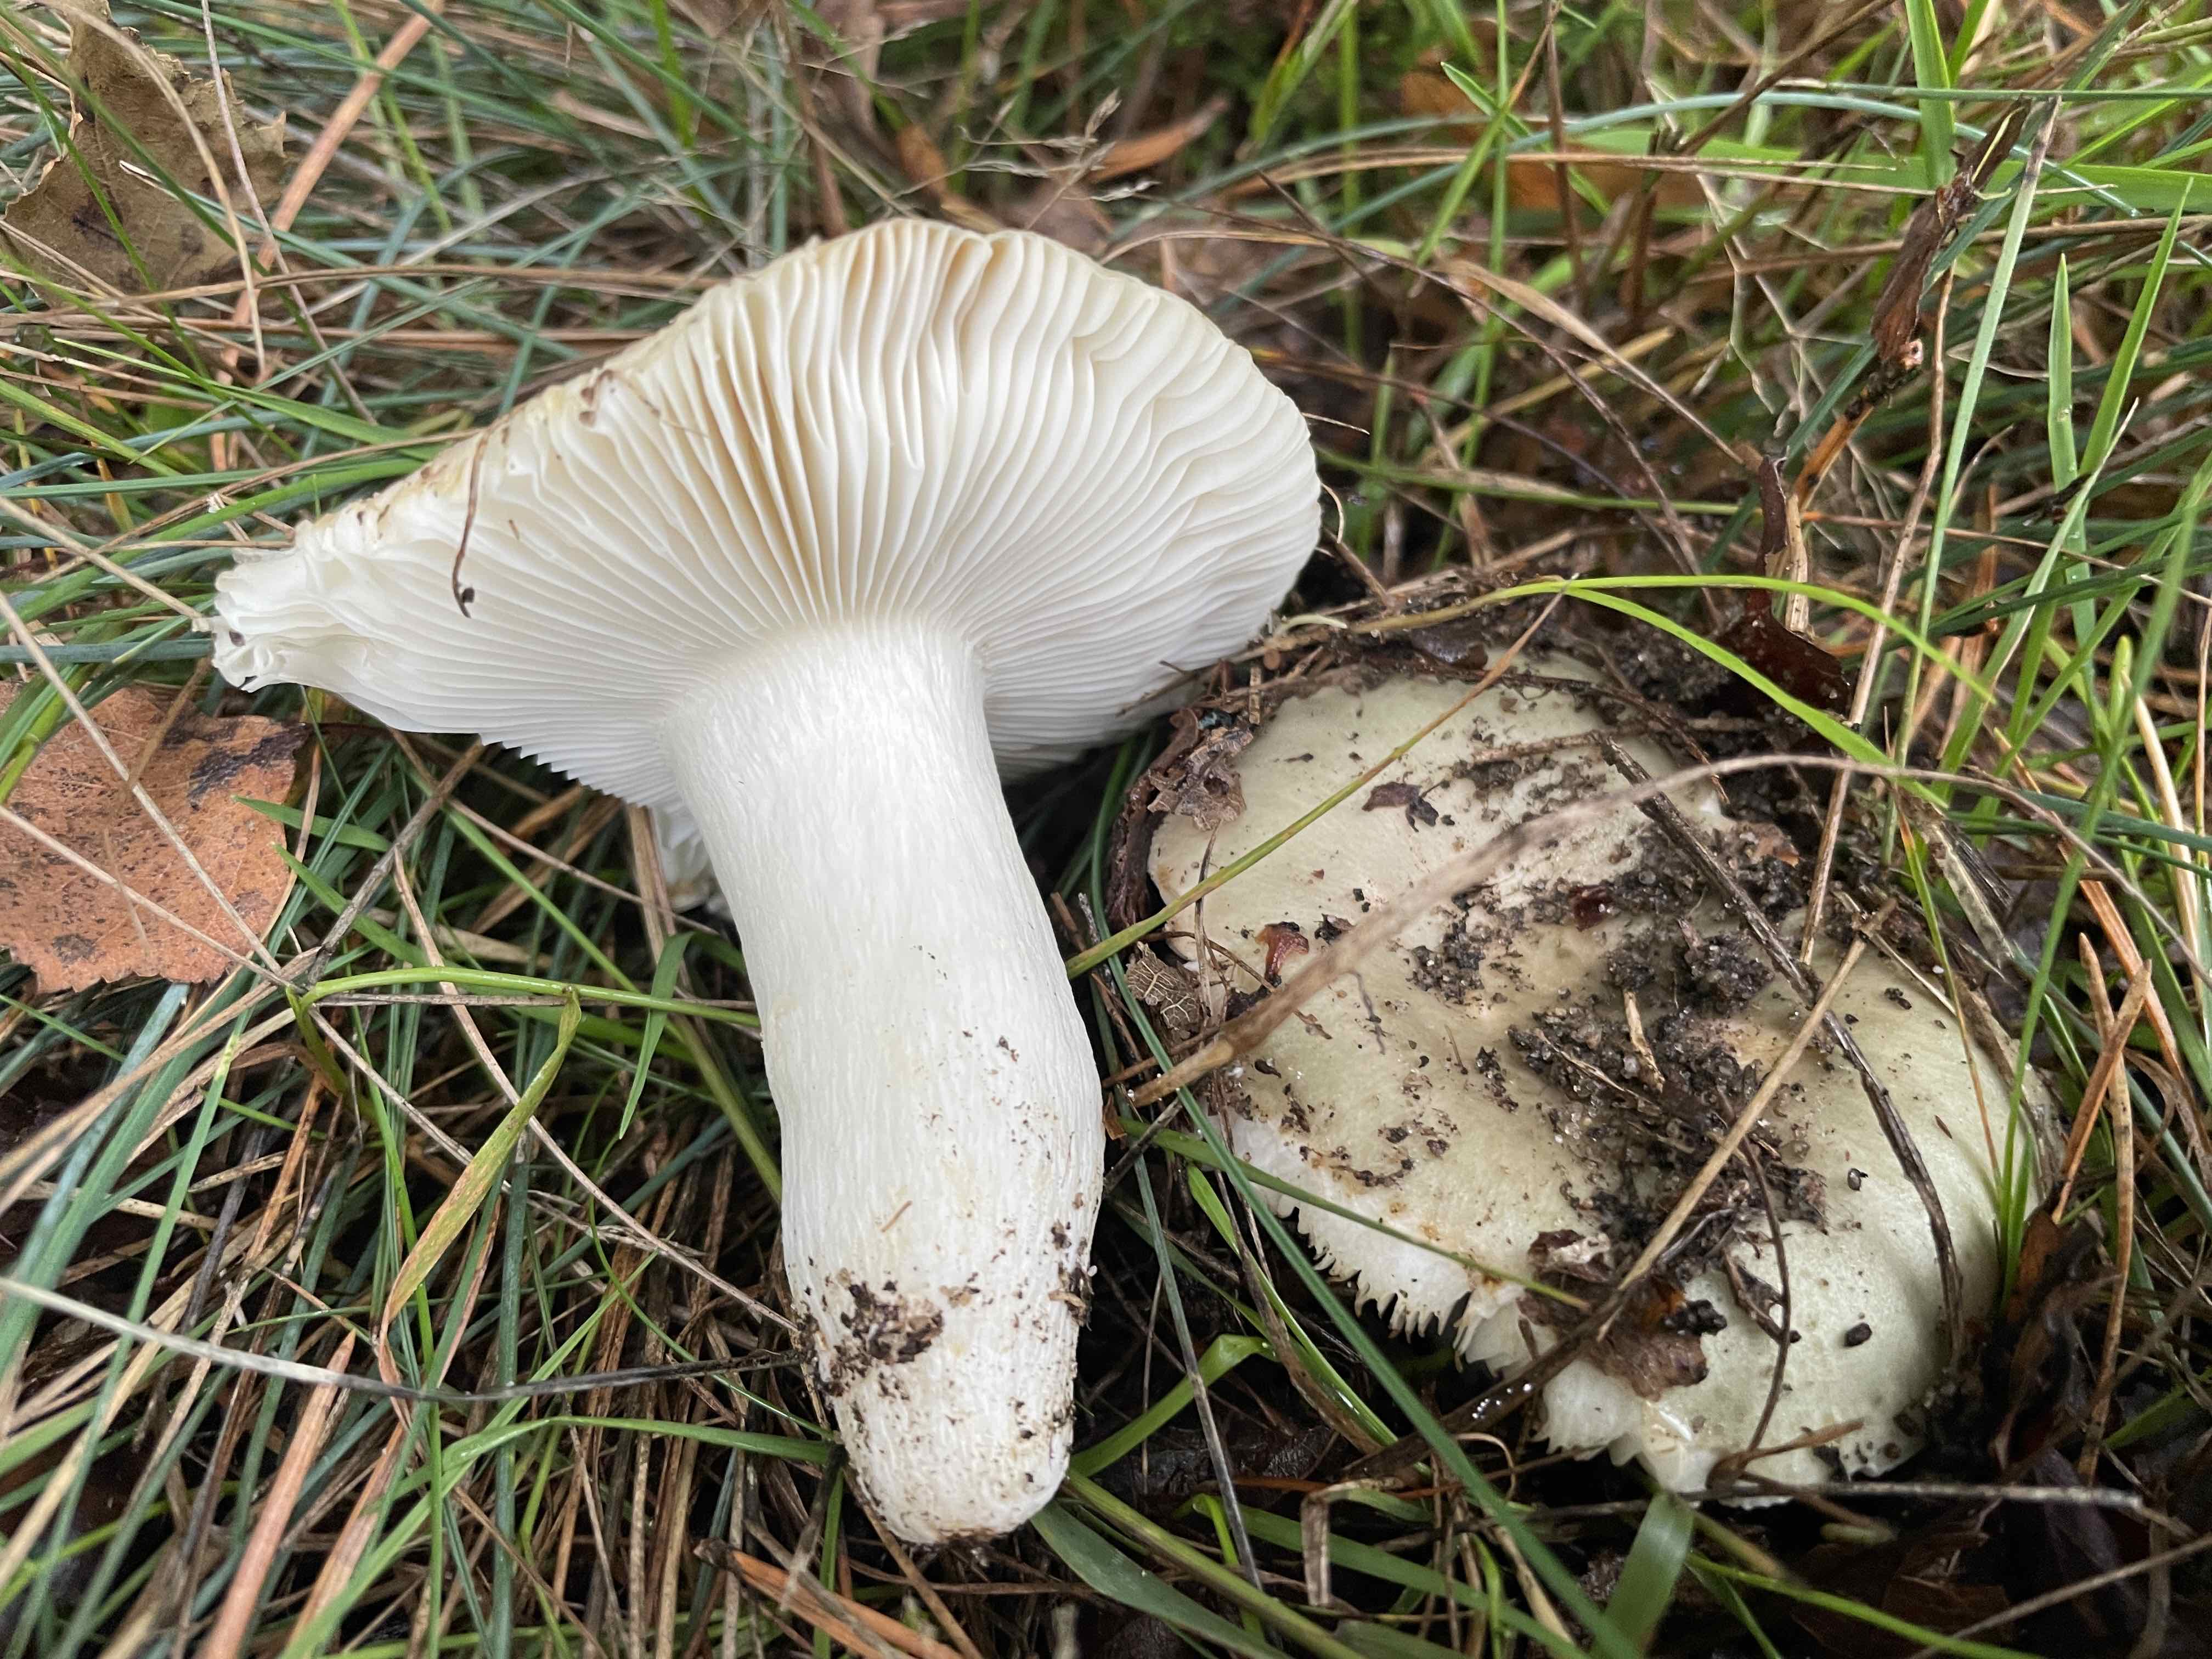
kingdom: Fungi
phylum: Basidiomycota
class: Agaricomycetes
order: Russulales
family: Russulaceae
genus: Russula
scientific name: Russula
